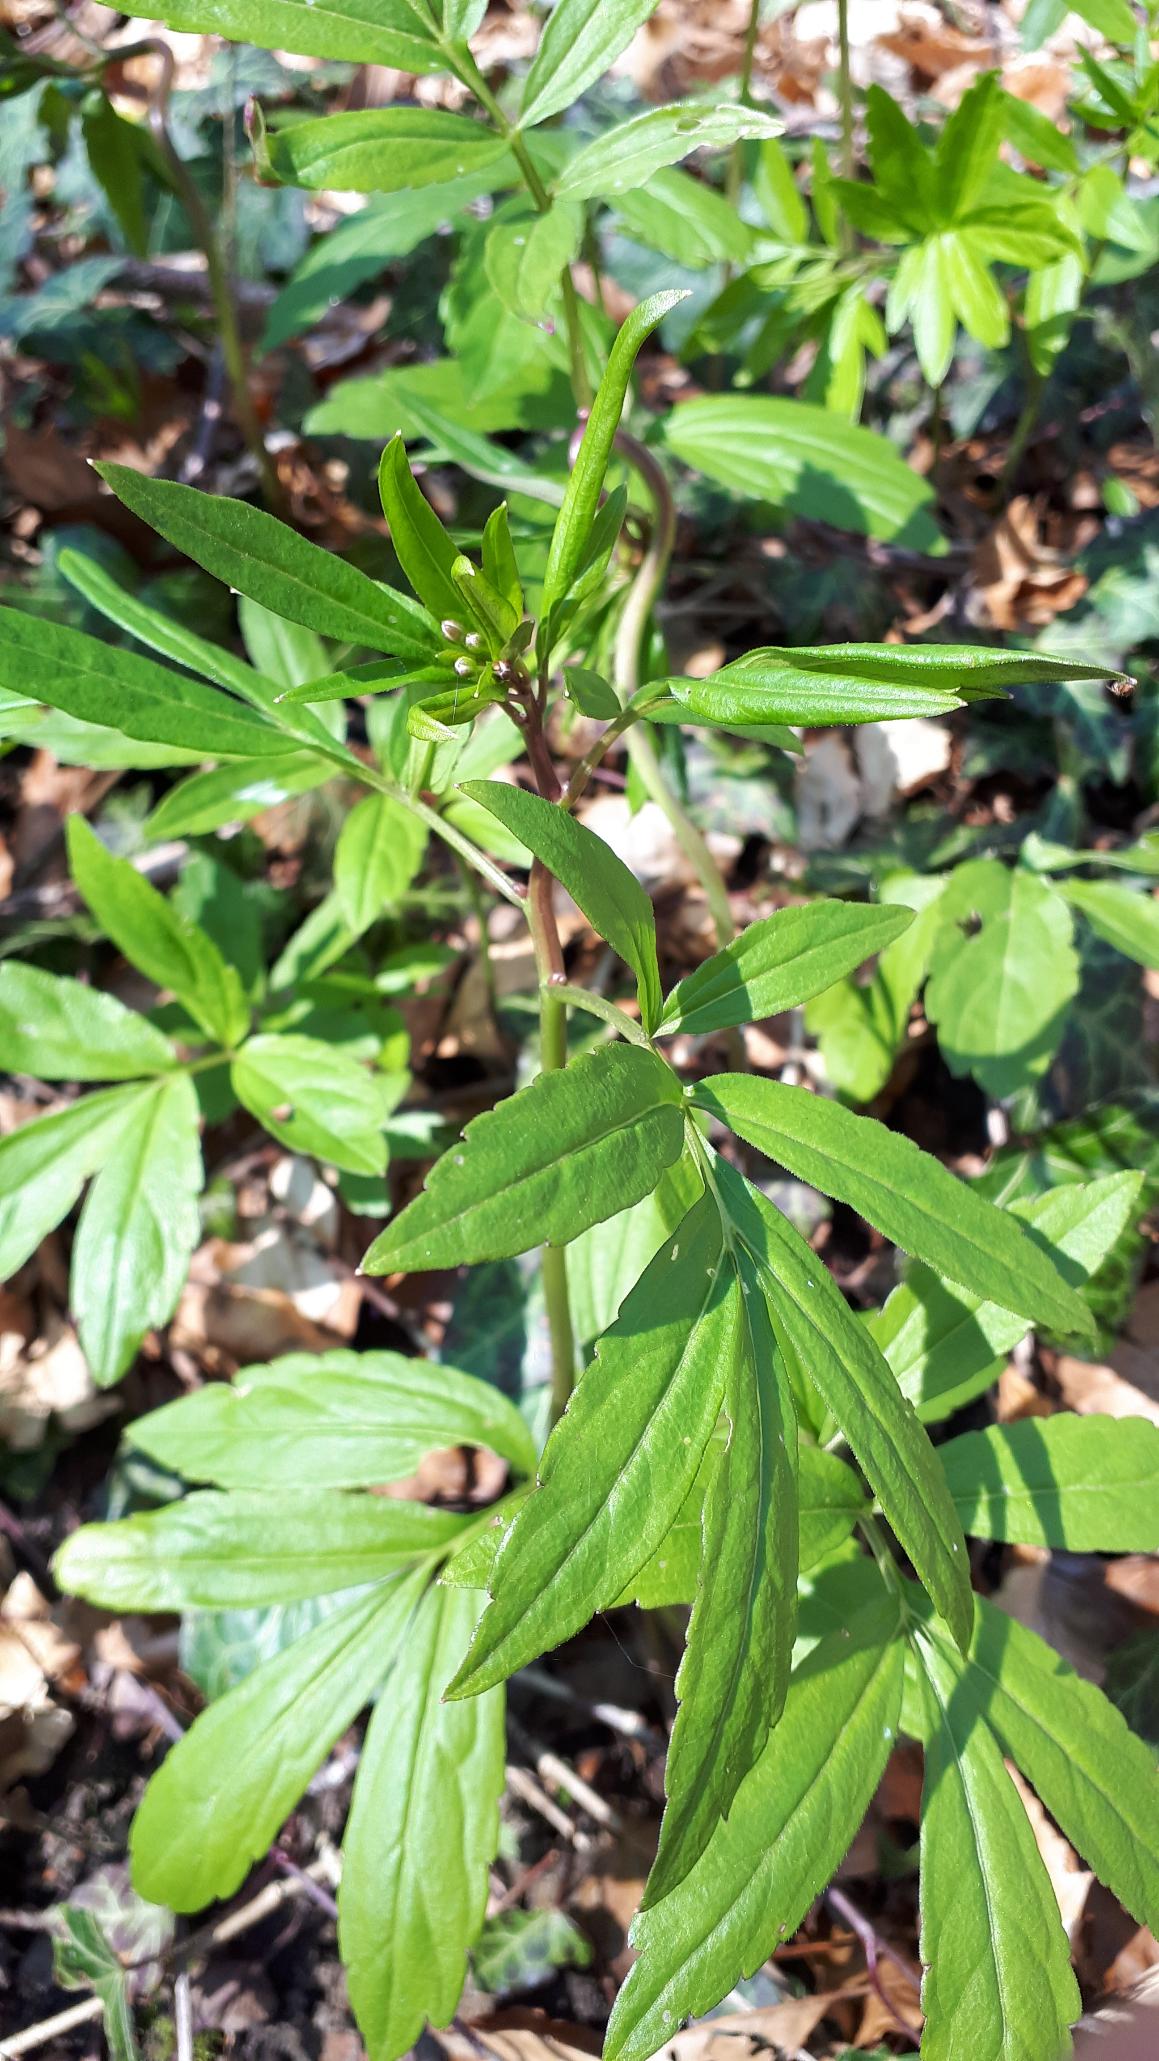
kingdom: Plantae
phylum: Tracheophyta
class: Magnoliopsida
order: Brassicales
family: Brassicaceae
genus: Cardamine
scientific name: Cardamine bulbifera
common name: Tandrod
